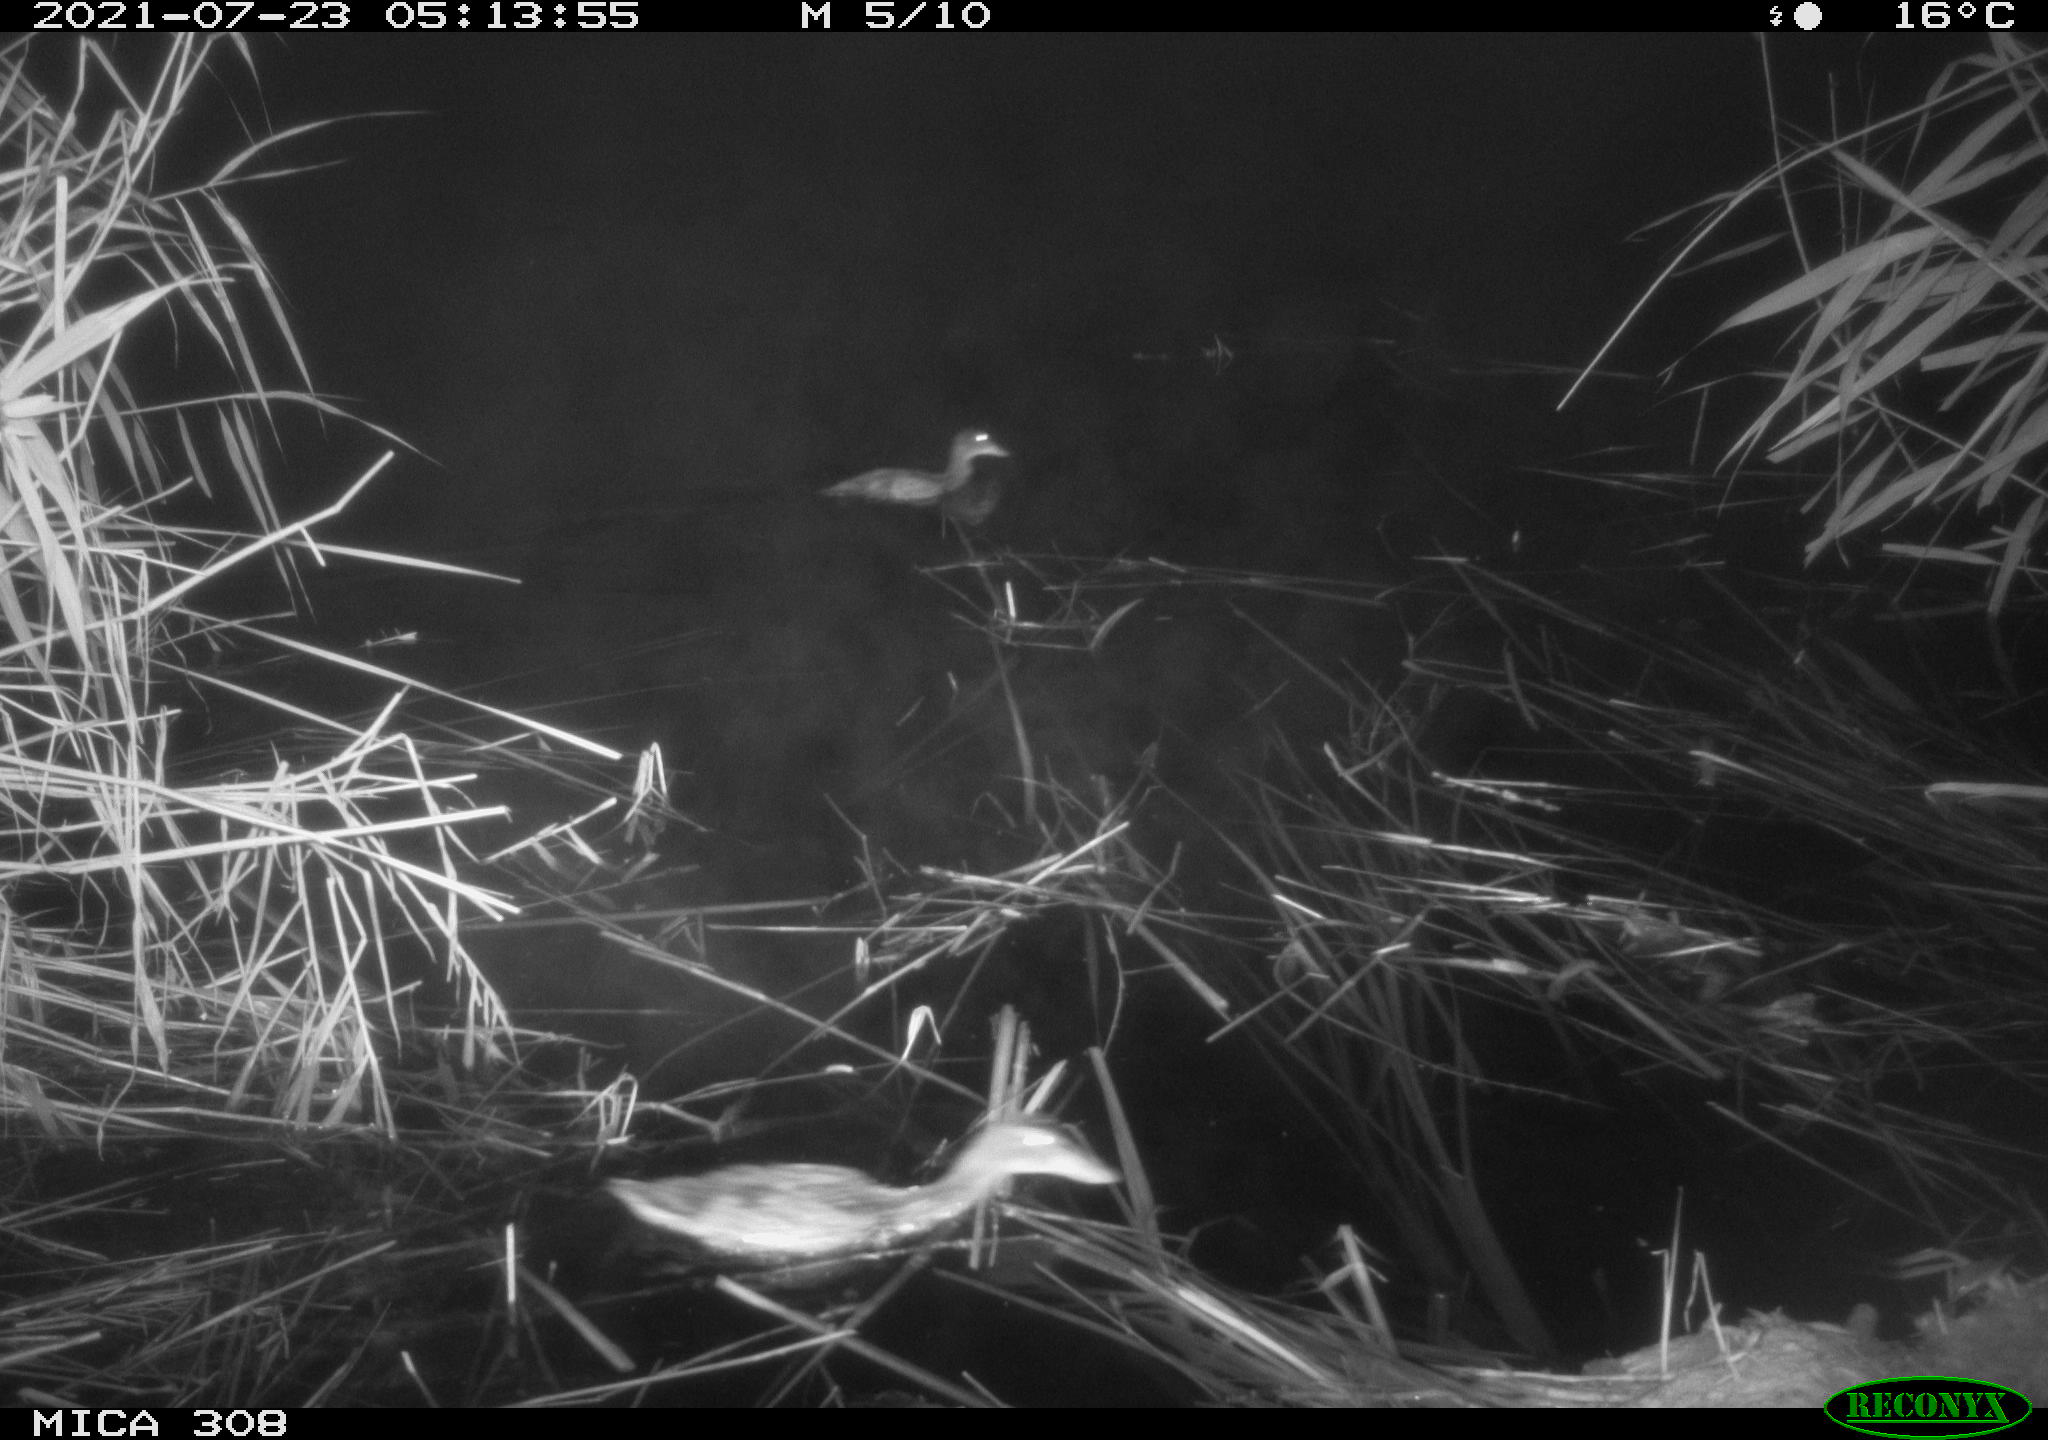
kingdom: Animalia
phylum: Chordata
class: Aves
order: Anseriformes
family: Anatidae
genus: Anas
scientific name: Anas platyrhynchos
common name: Mallard
